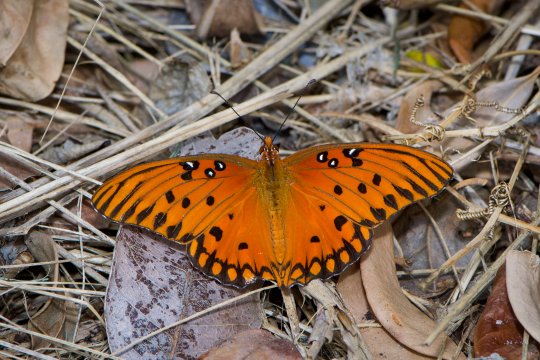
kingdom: Animalia
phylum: Arthropoda
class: Insecta
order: Lepidoptera
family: Nymphalidae
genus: Dione
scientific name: Dione vanillae
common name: Gulf Fritillary
